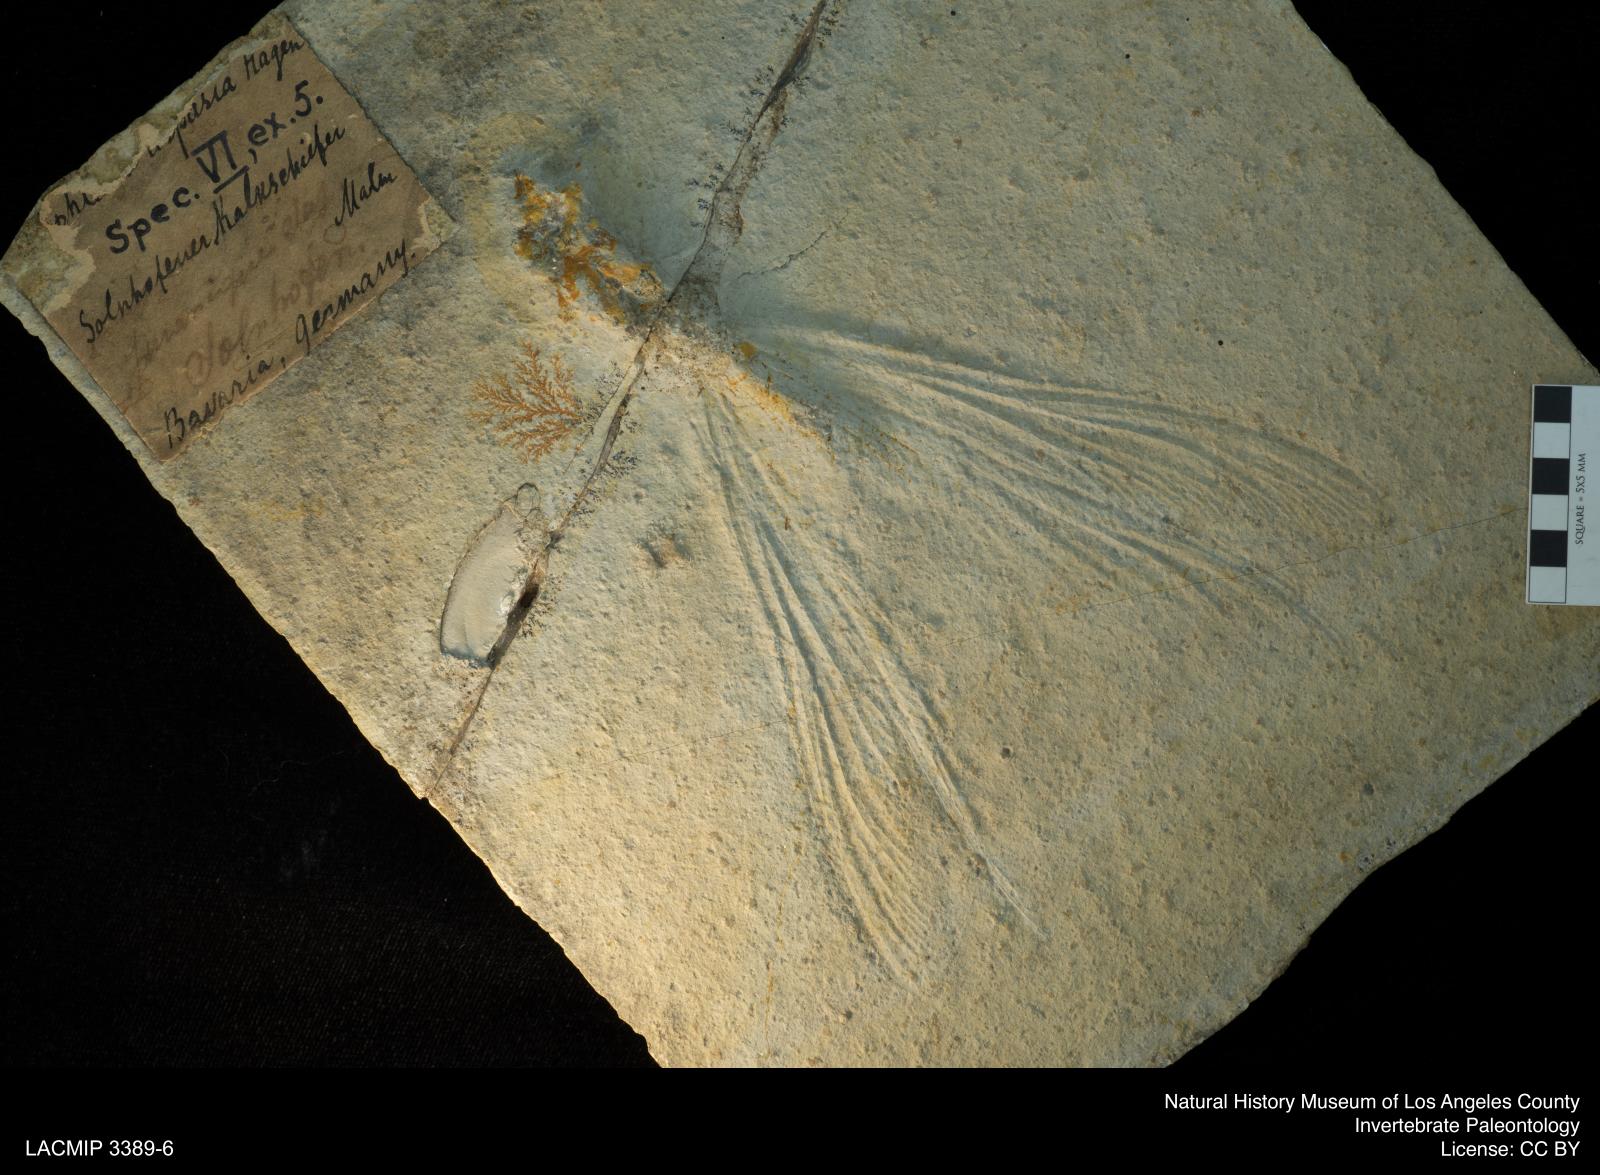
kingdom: Animalia
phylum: Arthropoda
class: Insecta
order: Odonata
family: Isophlebiidae
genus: Isophlebia
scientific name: Isophlebia Calopteryx aspasia
